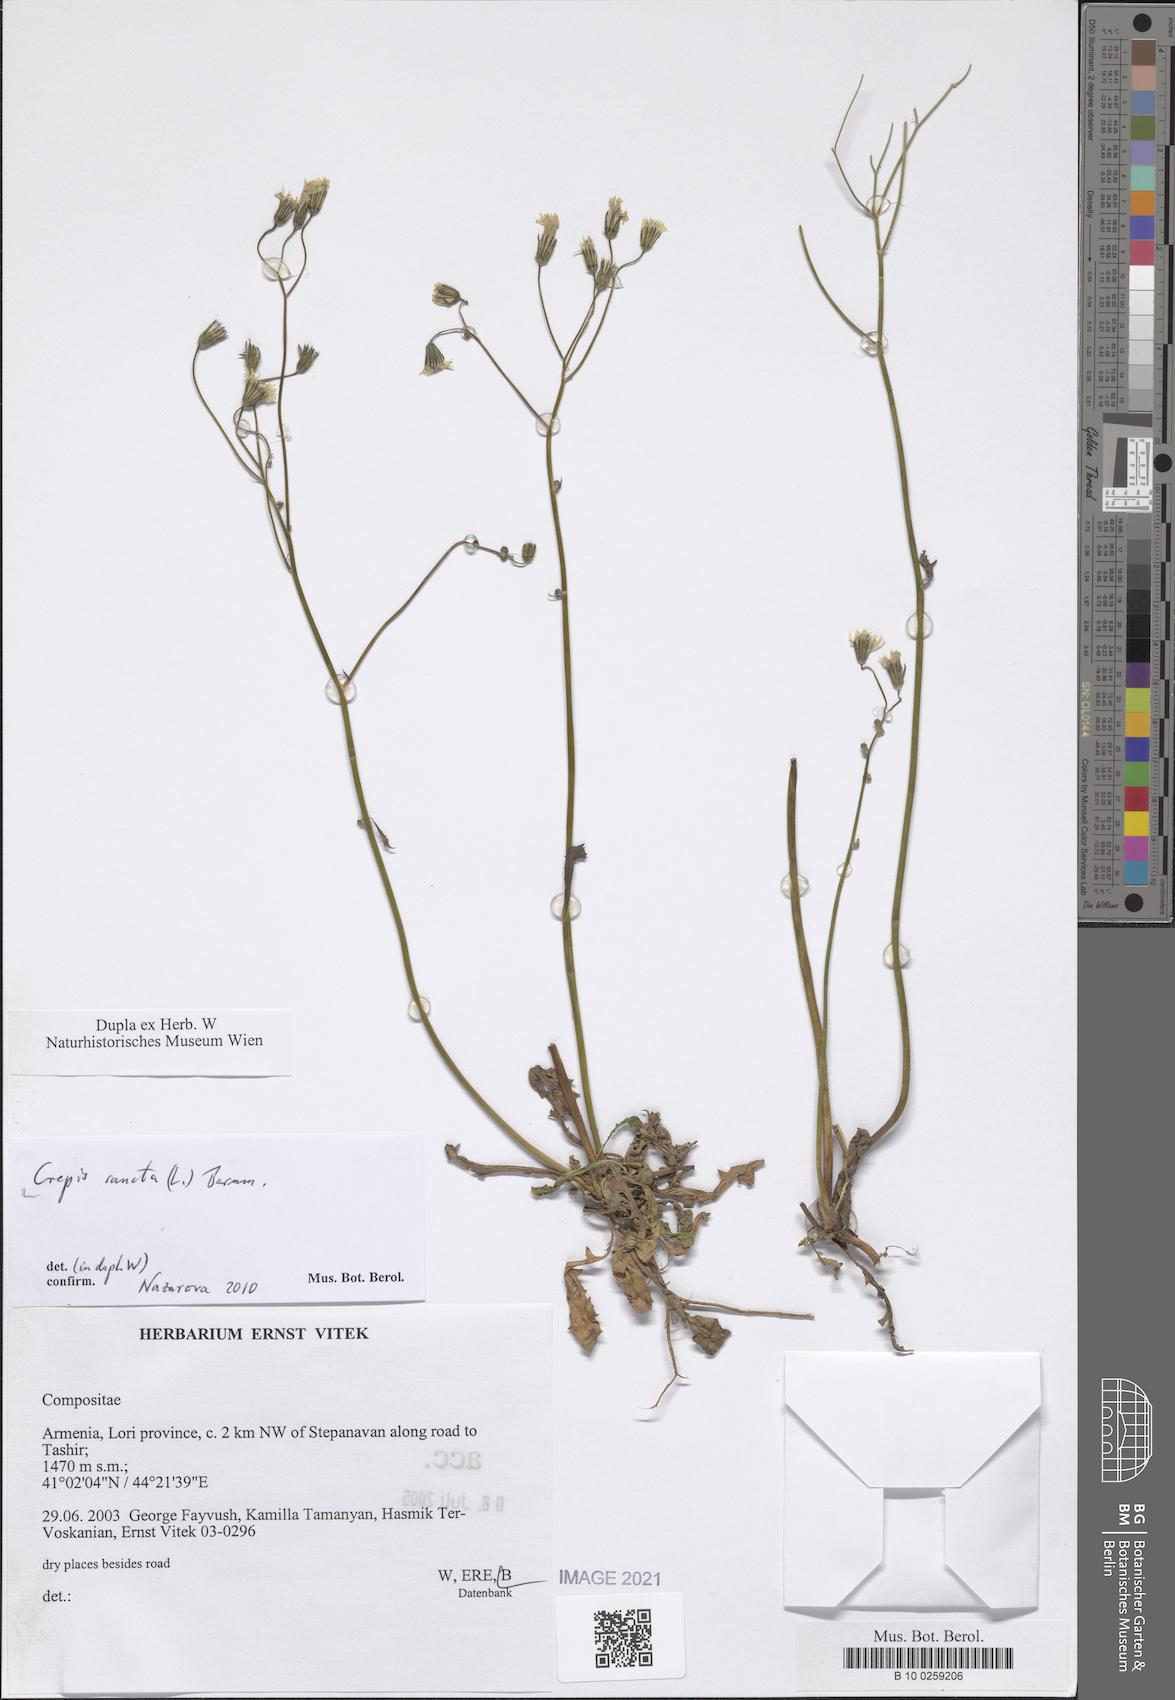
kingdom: Plantae
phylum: Tracheophyta
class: Magnoliopsida
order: Asterales
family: Asteraceae
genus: Crepis
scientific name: Crepis sancta
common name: Hawk's-beard
